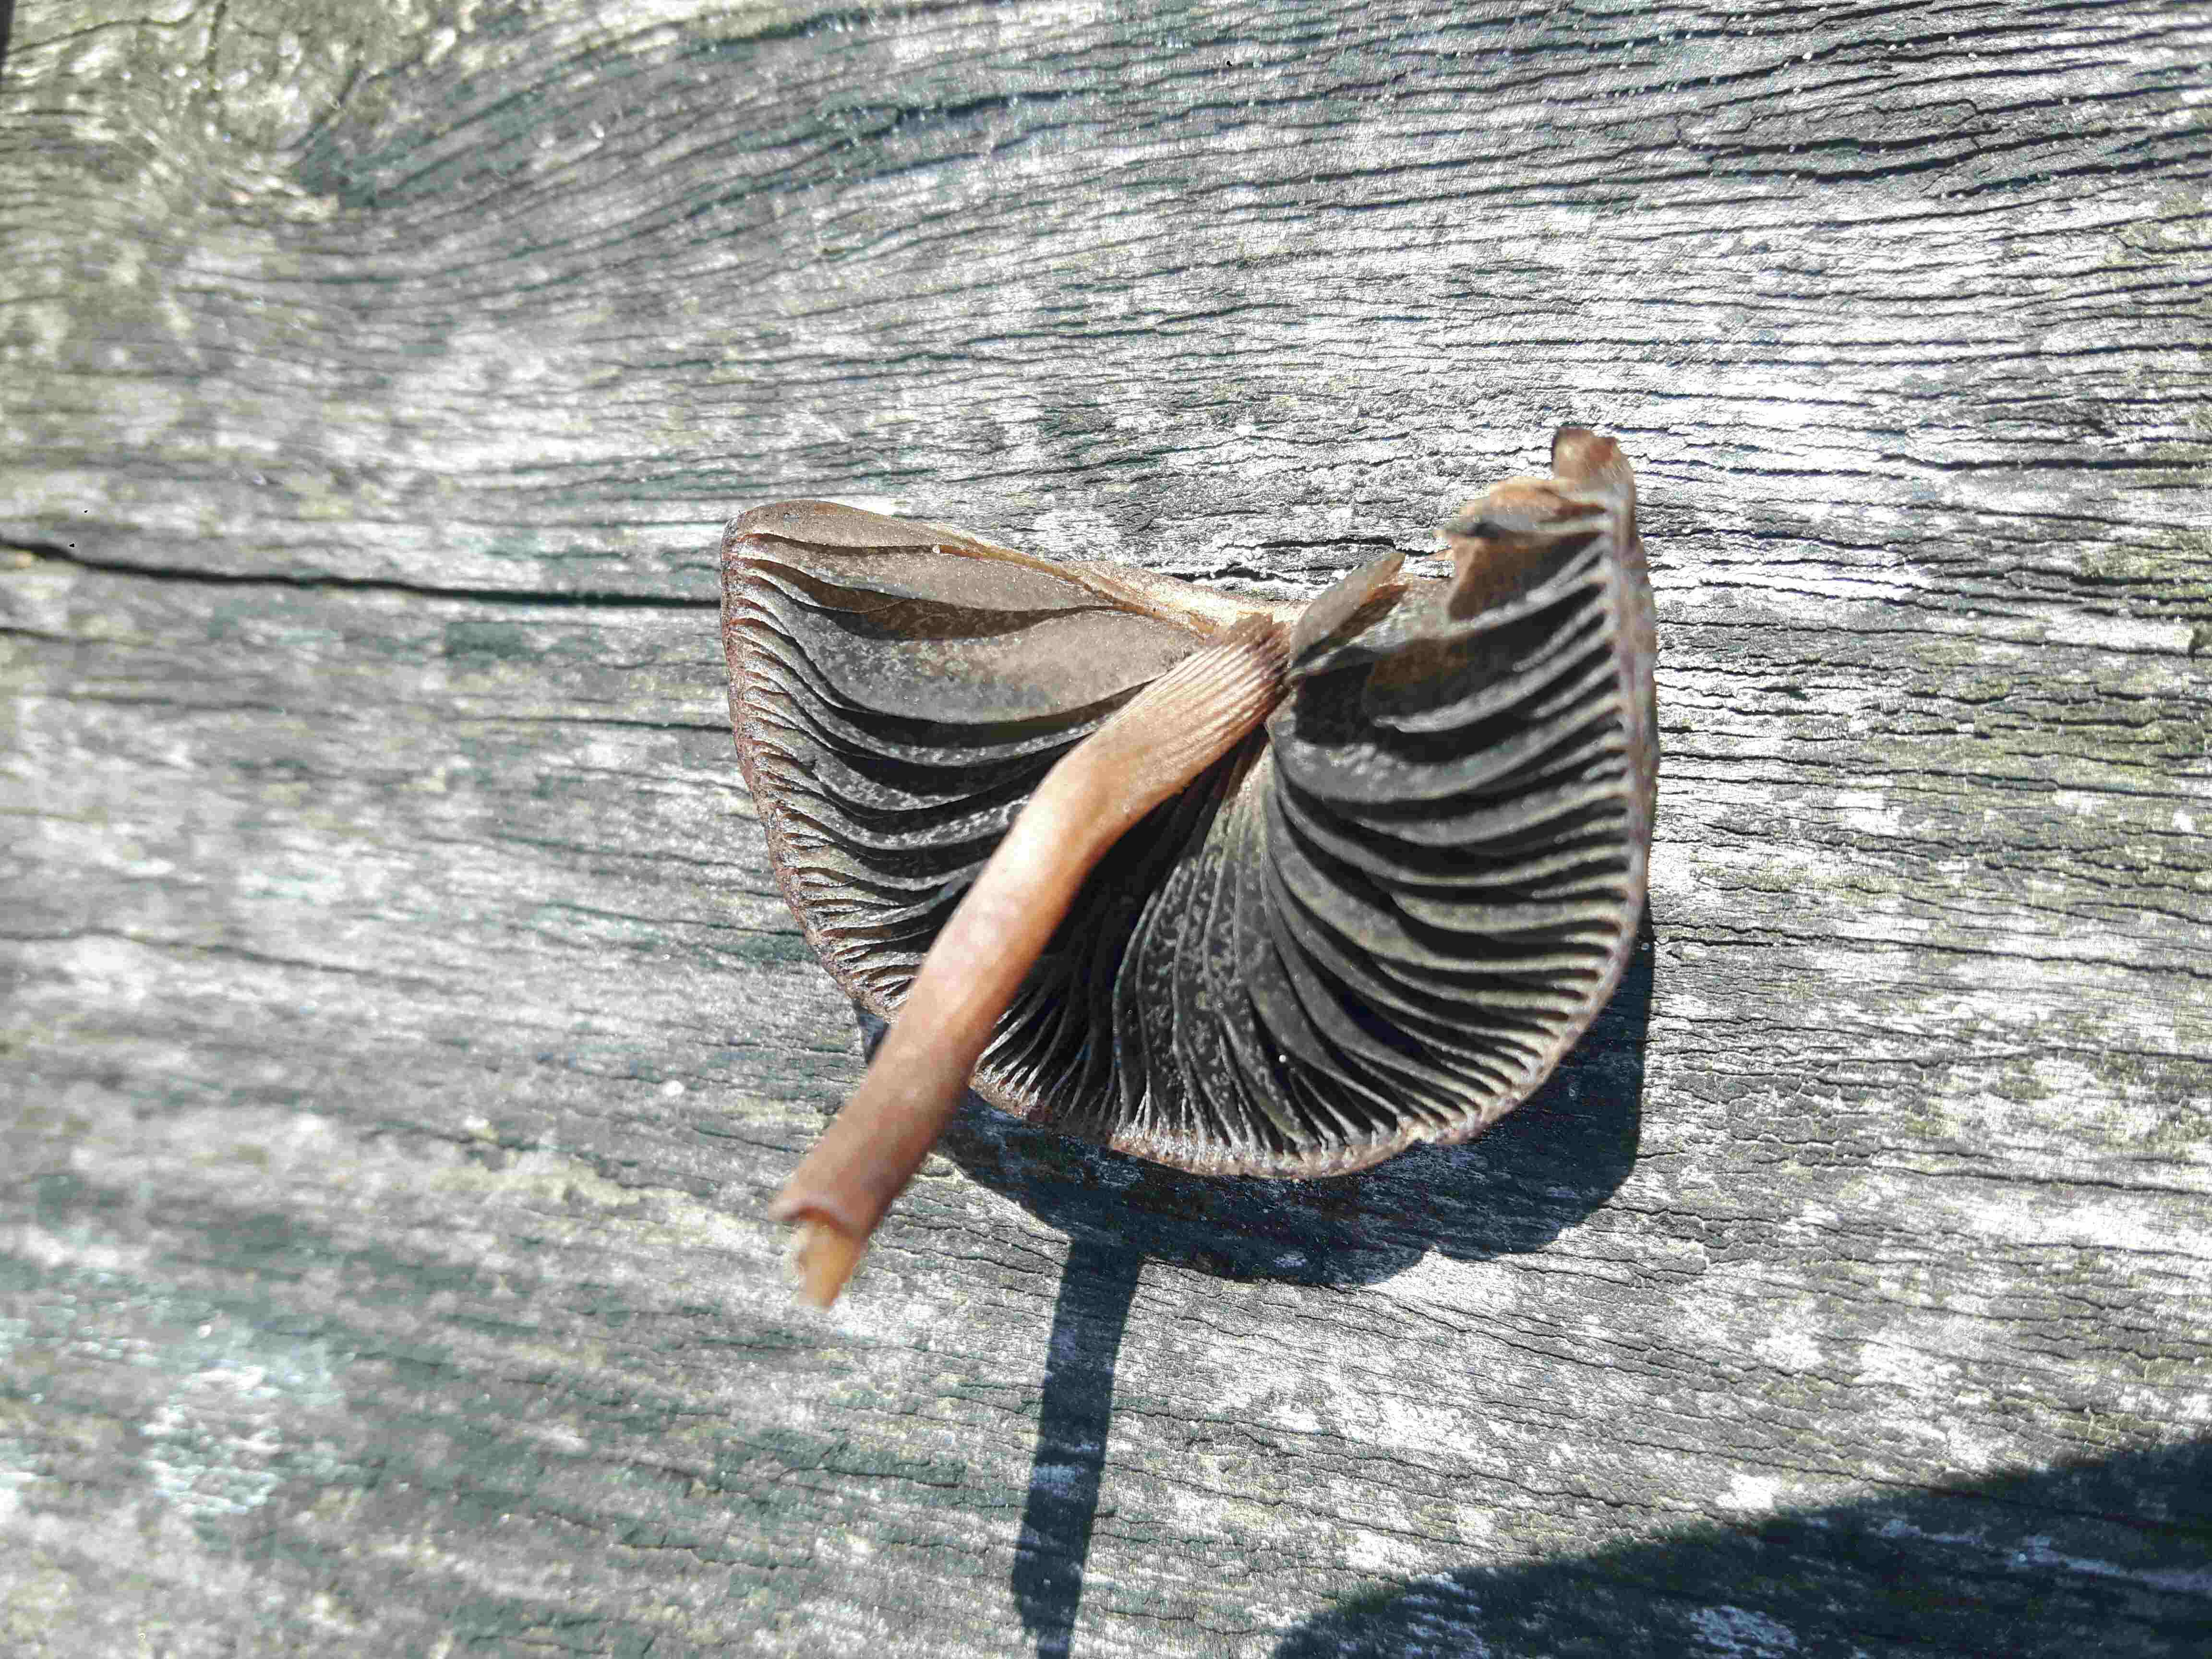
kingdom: Fungi
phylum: Basidiomycota
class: Agaricomycetes
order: Agaricales
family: Bolbitiaceae
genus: Panaeolus
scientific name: Panaeolus fimicola
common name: tidlig glanshat
